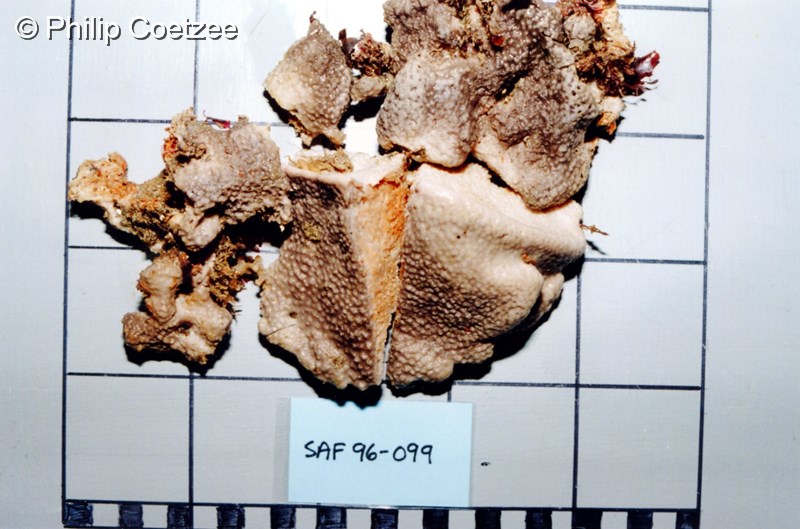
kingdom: Animalia
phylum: Porifera
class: Demospongiae
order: Dictyoceratida
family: Irciniidae
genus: Psammocinia
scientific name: Psammocinia compacta
